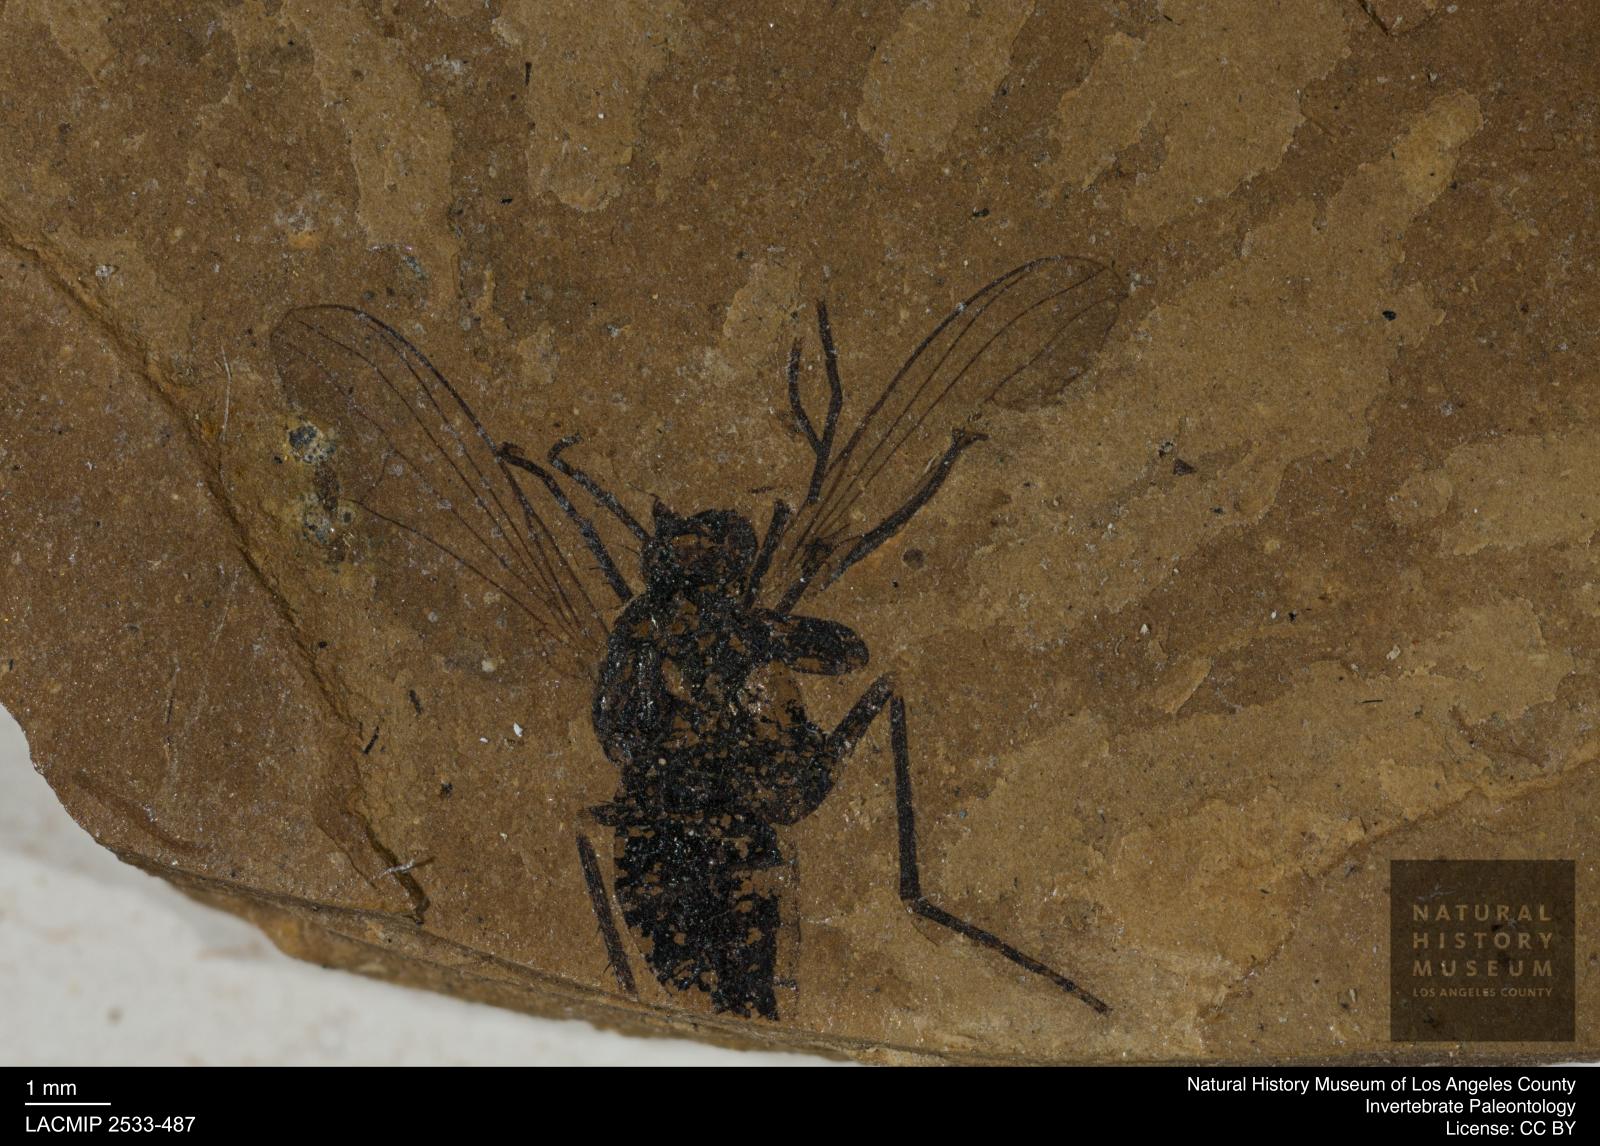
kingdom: Animalia
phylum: Arthropoda
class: Insecta
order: Diptera
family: Dolichopodidae
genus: Dolichopus
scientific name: Dolichopus scitus
